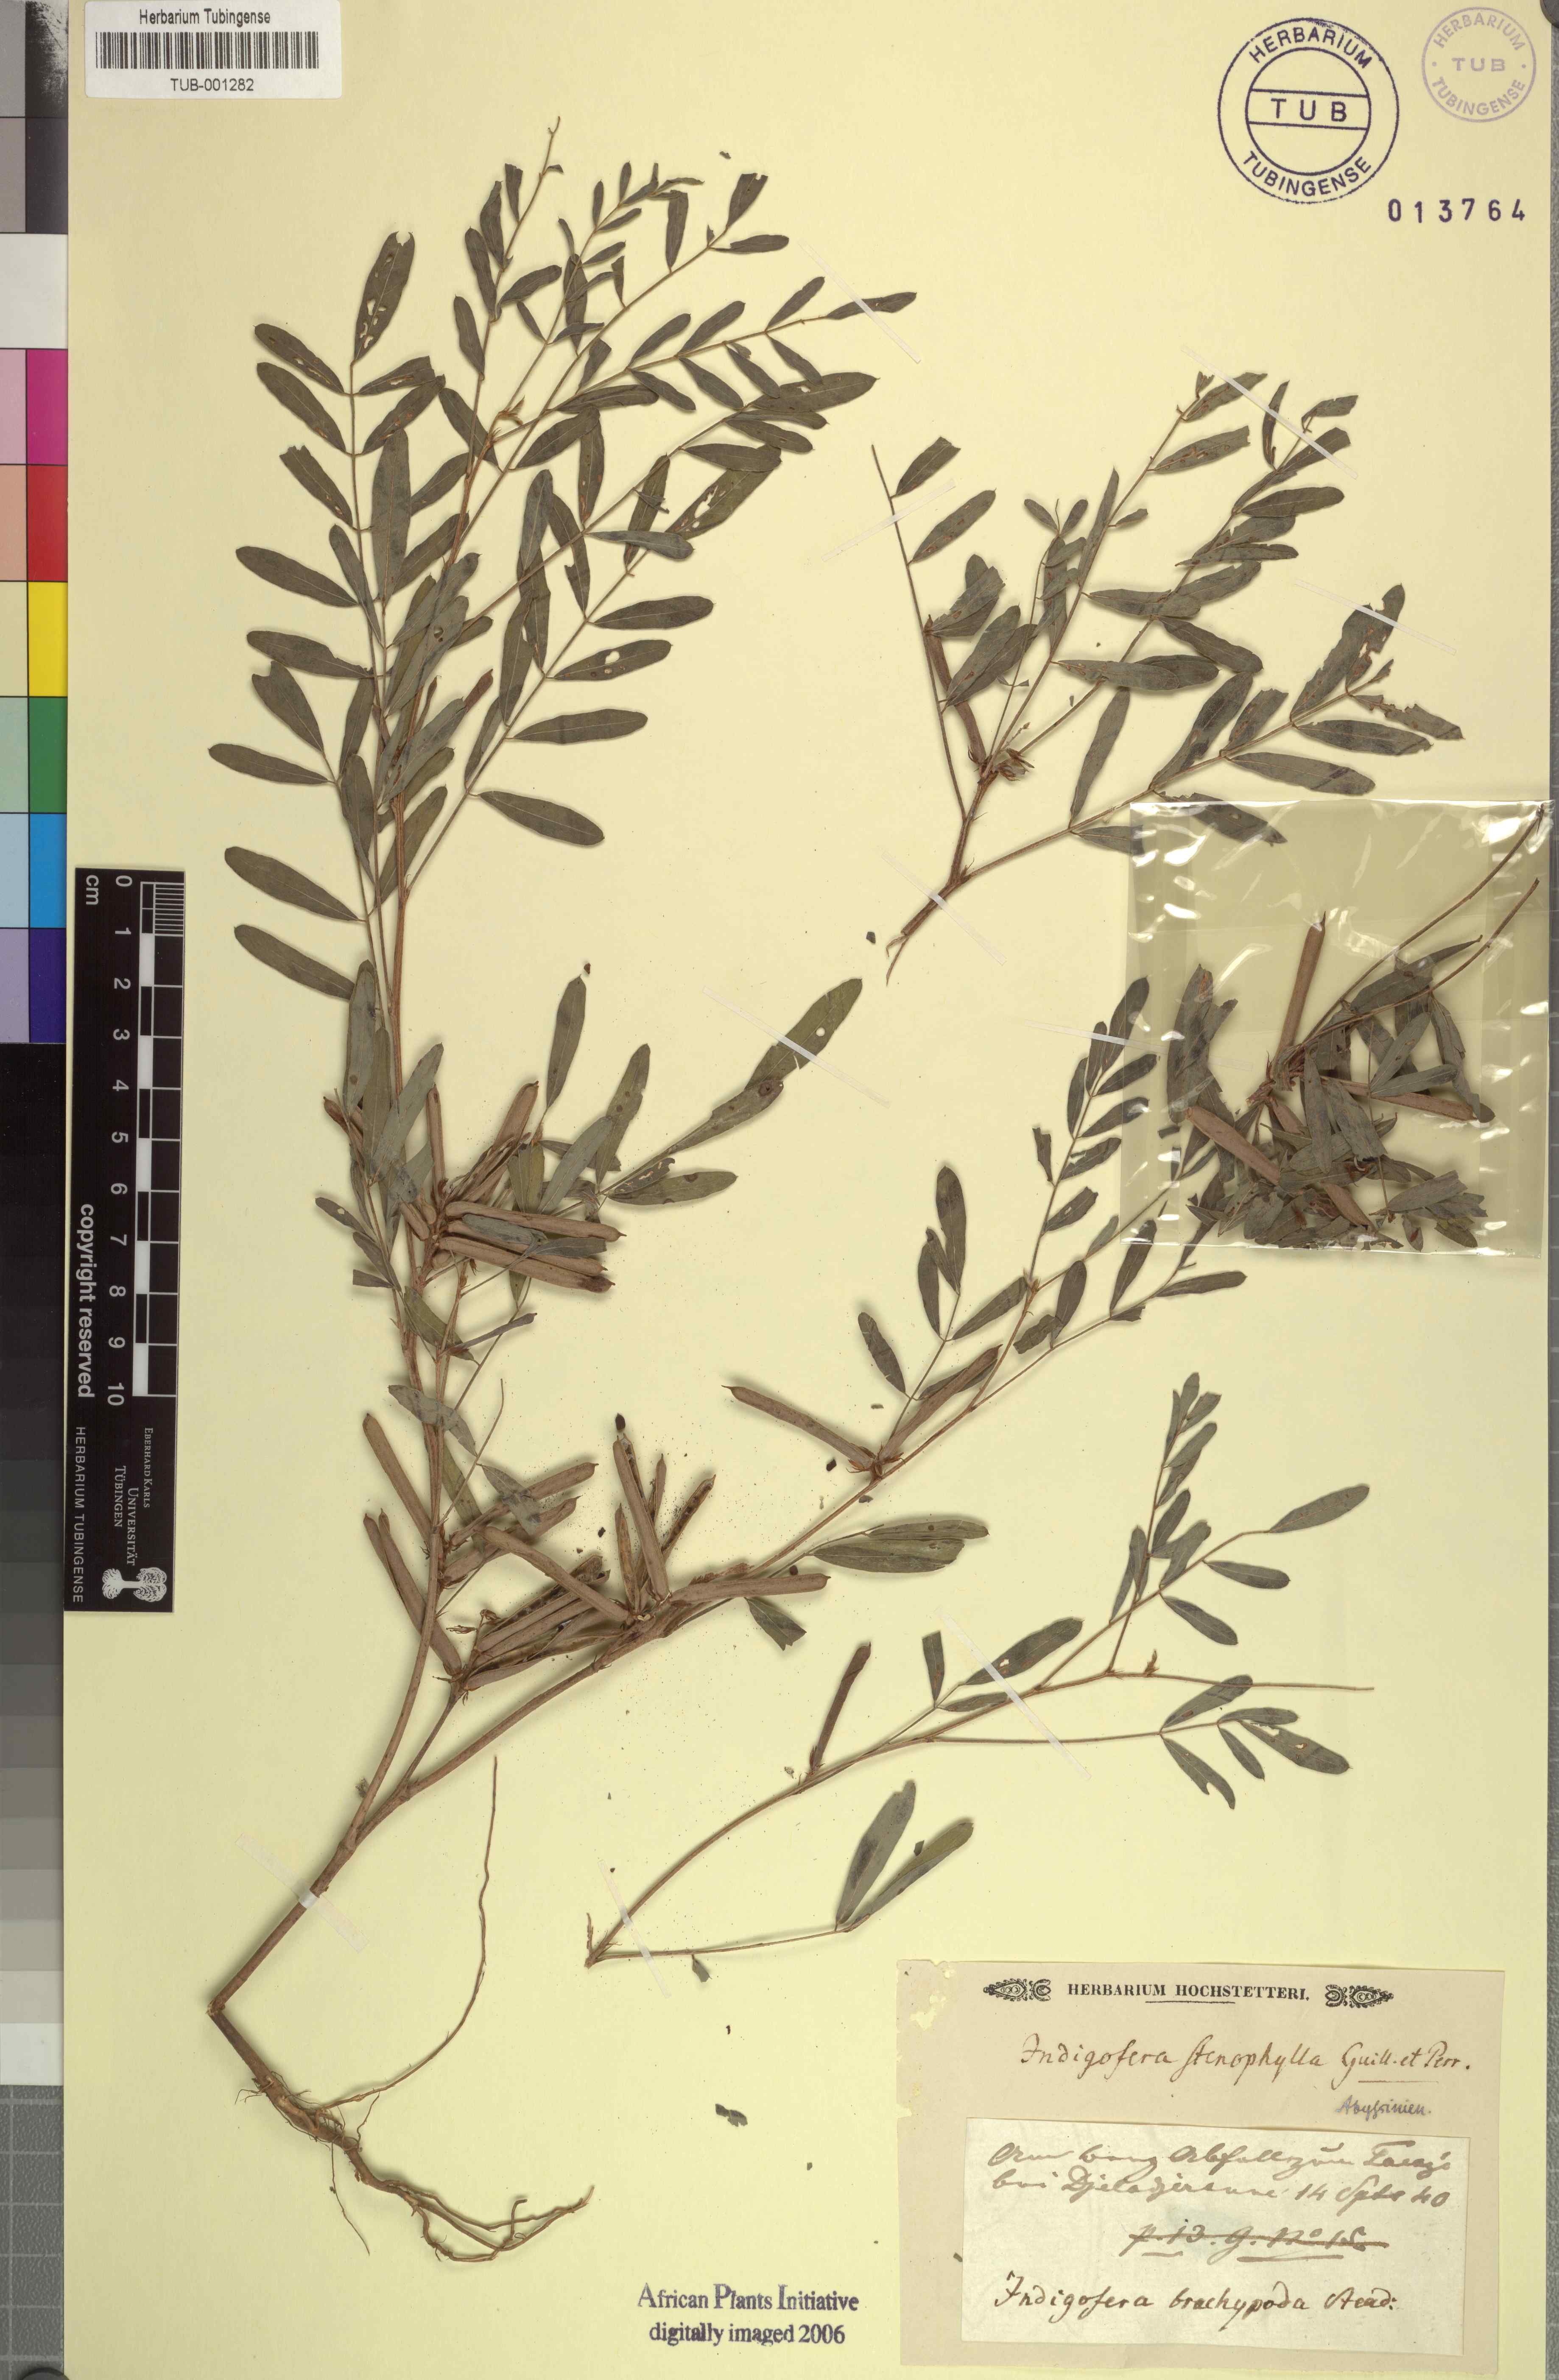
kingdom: Plantae
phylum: Tracheophyta
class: Magnoliopsida
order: Fabales
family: Fabaceae
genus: Indigofera
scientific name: Indigofera stenophylla
